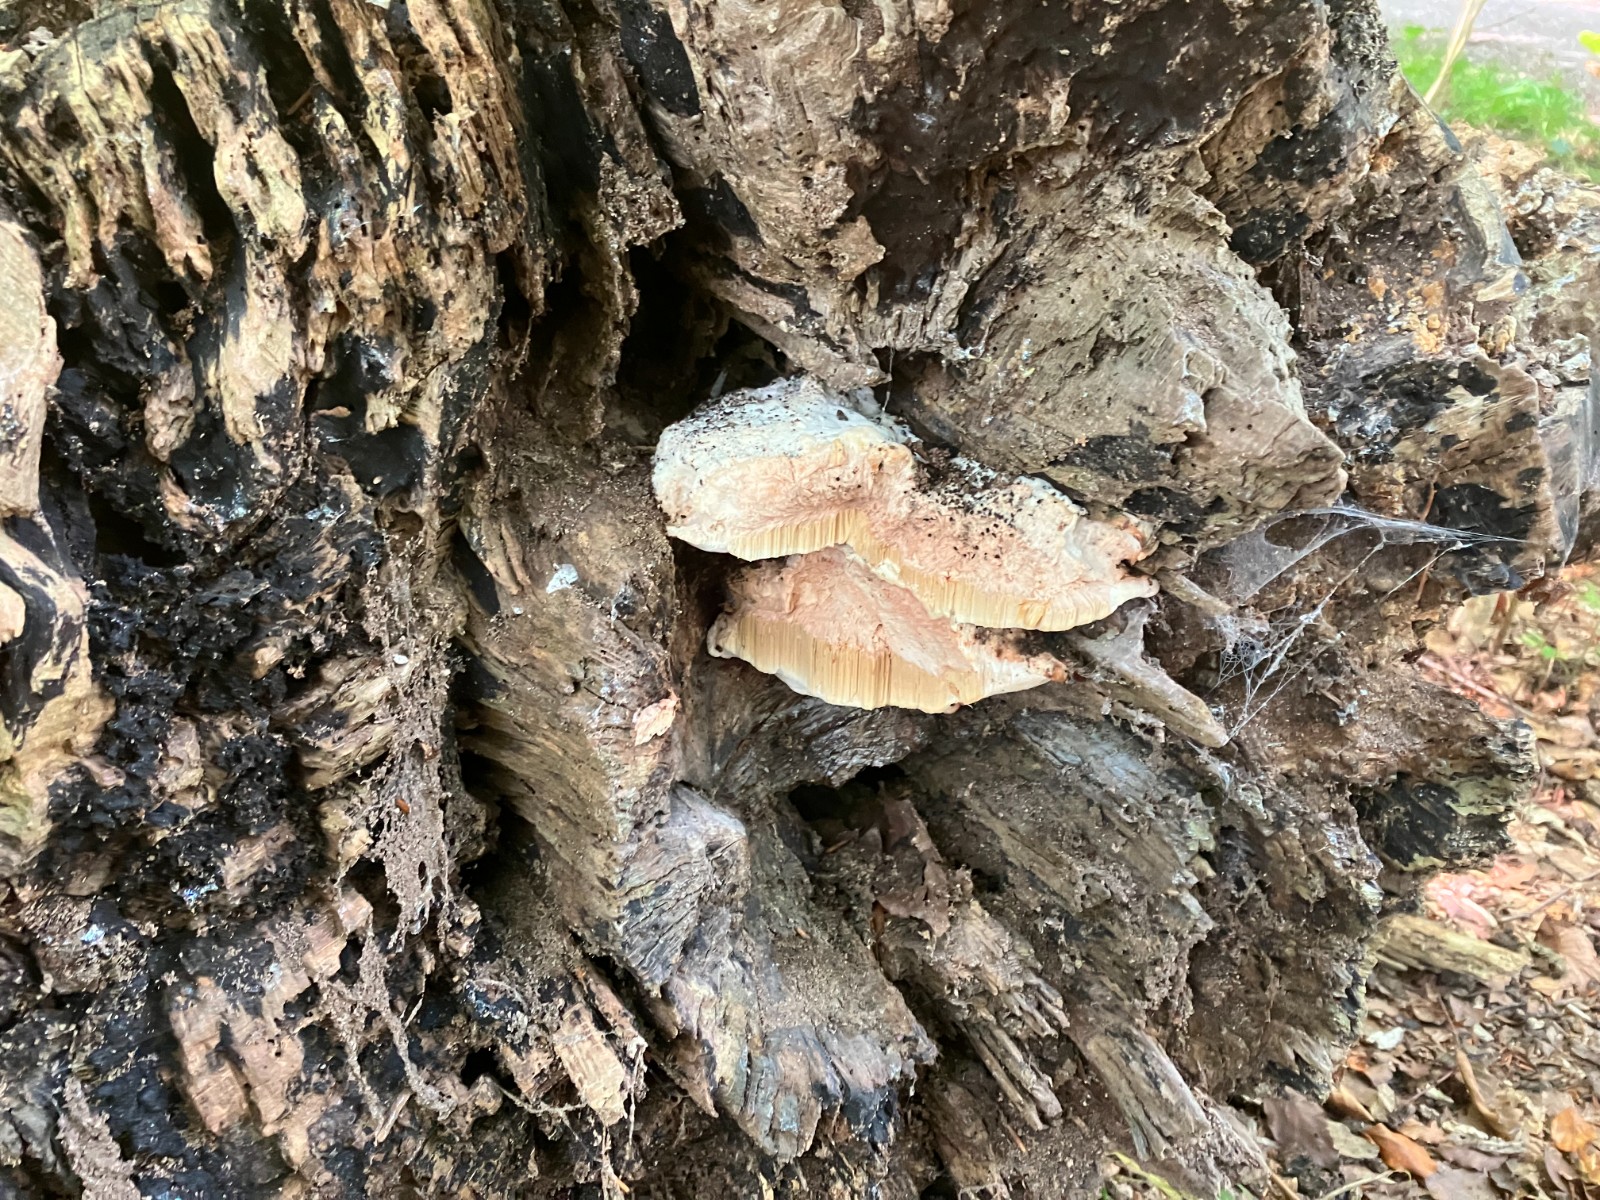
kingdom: Fungi
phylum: Basidiomycota
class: Agaricomycetes
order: Polyporales
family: Meruliaceae
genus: Pappia
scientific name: Pappia fissilis
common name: rosa fedtporesvamp
